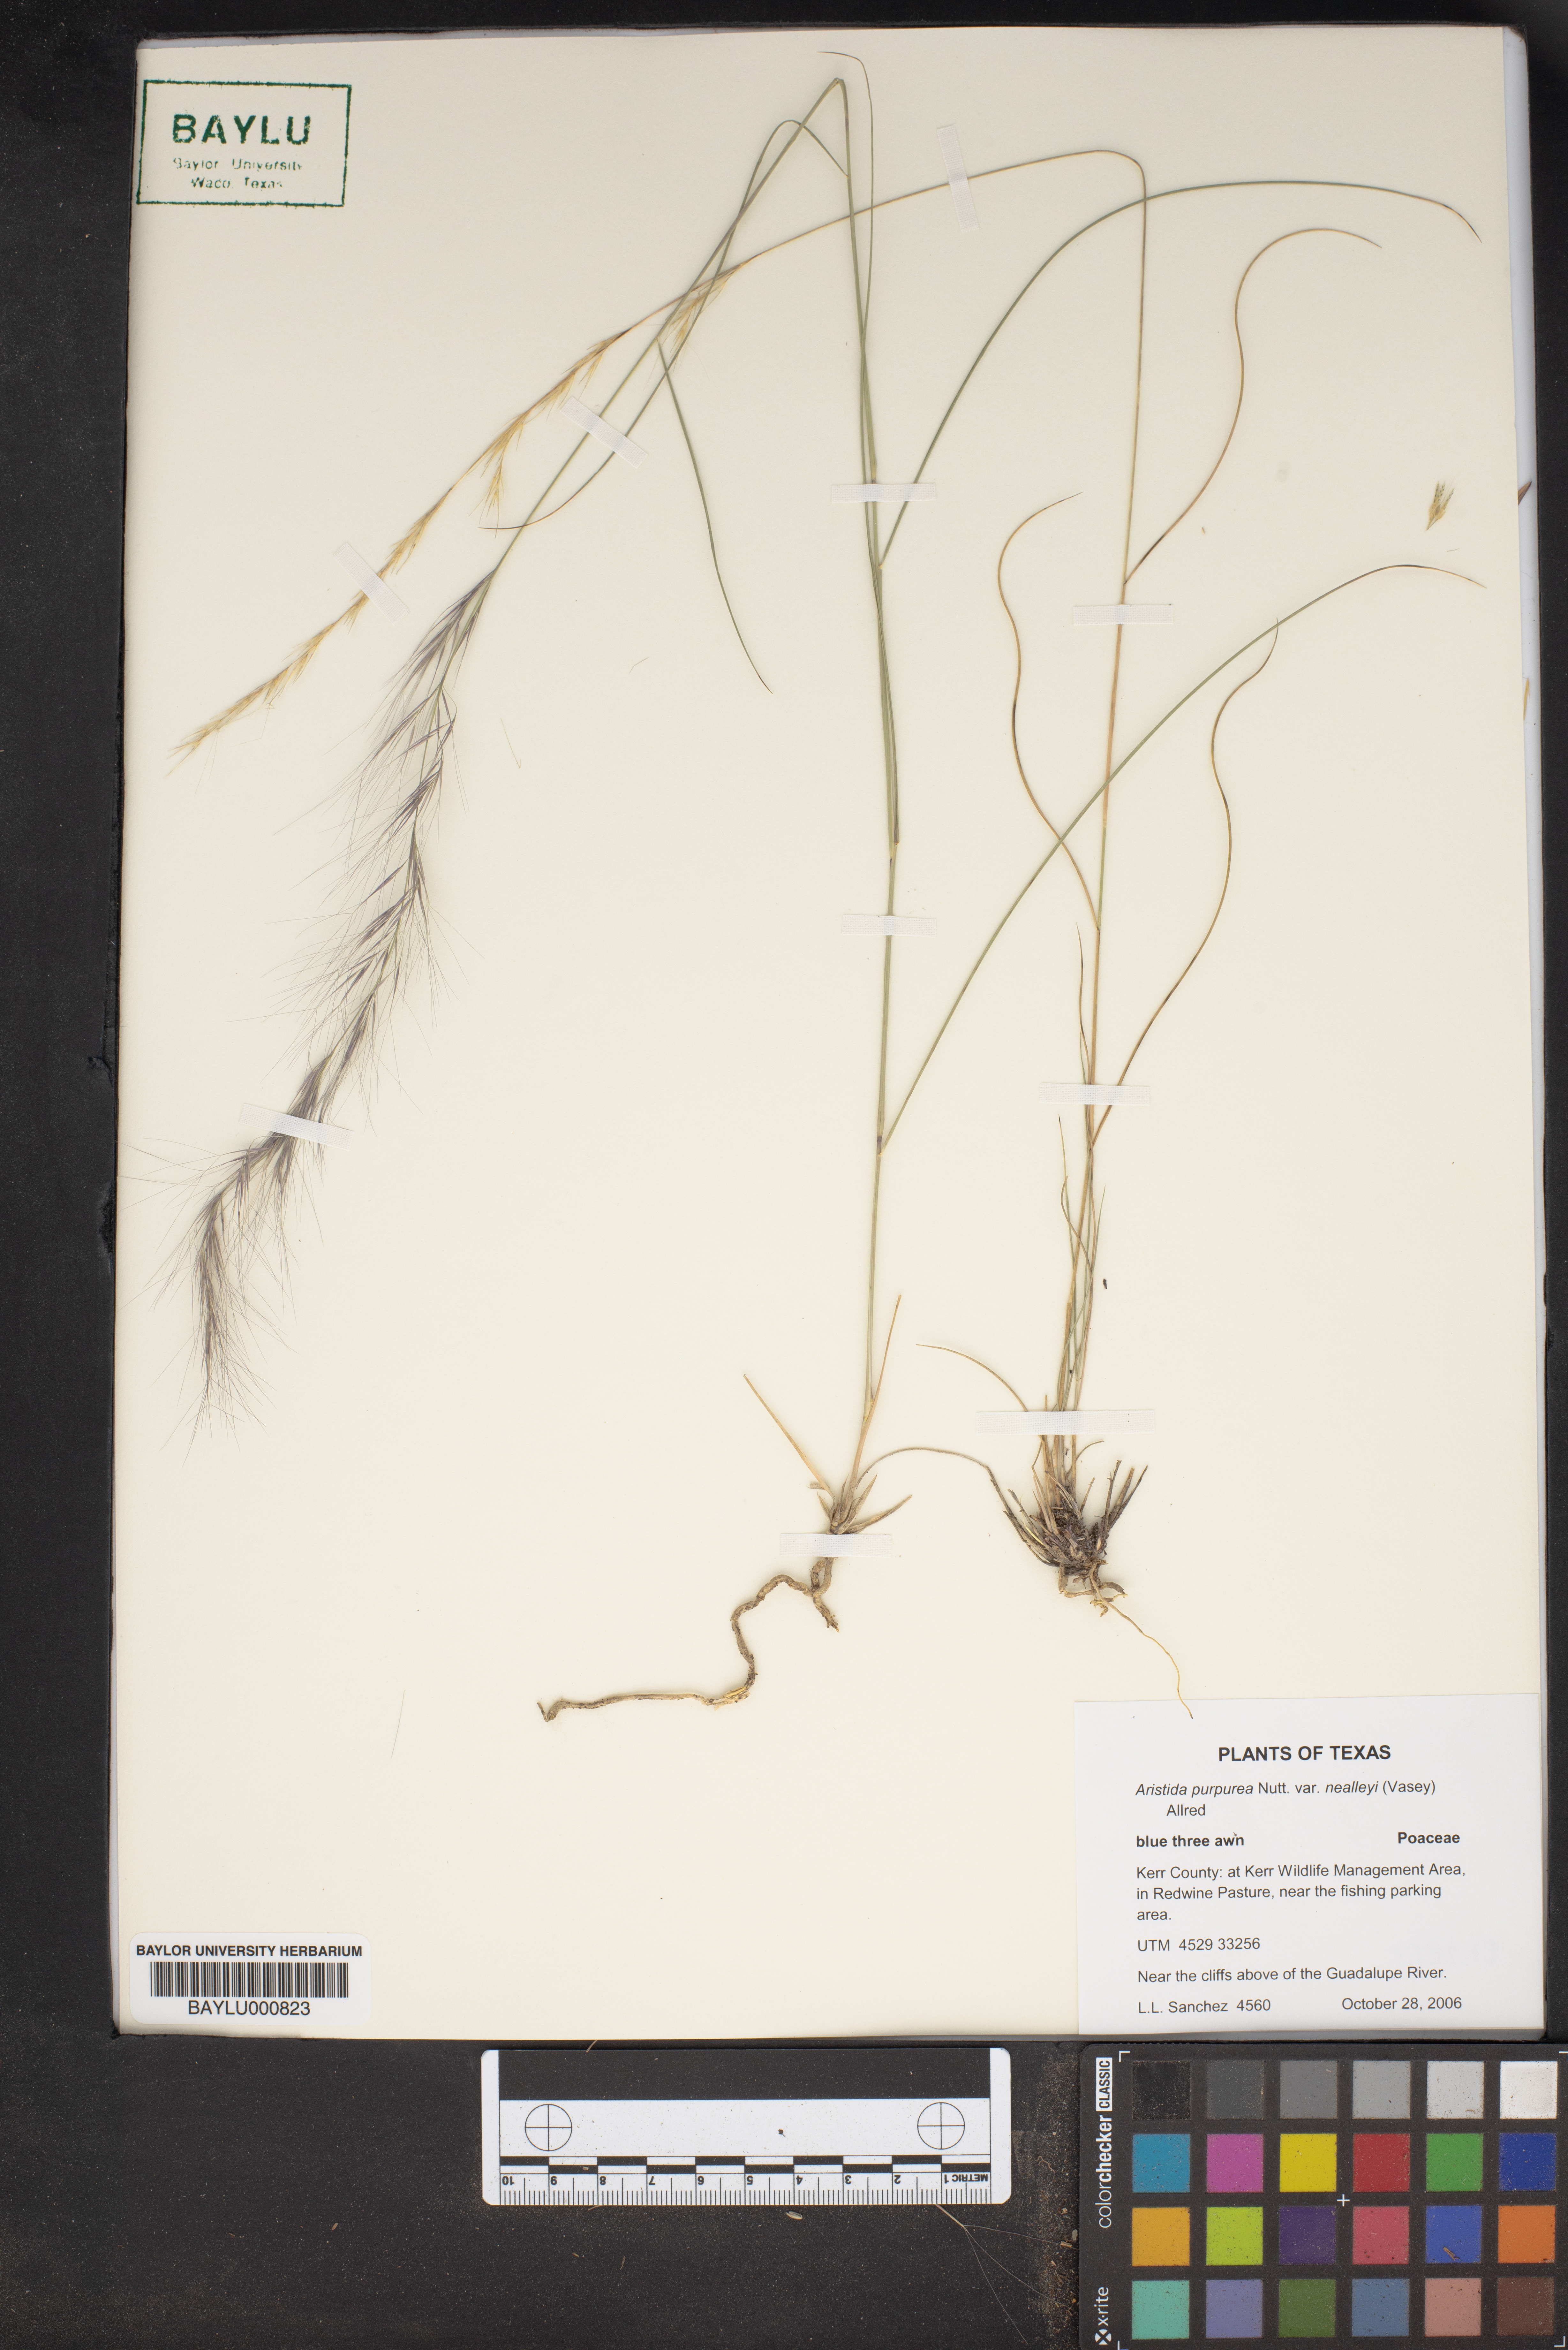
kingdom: Plantae
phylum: Tracheophyta
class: Liliopsida
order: Poales
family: Poaceae
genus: Aristida
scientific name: Aristida glauca
